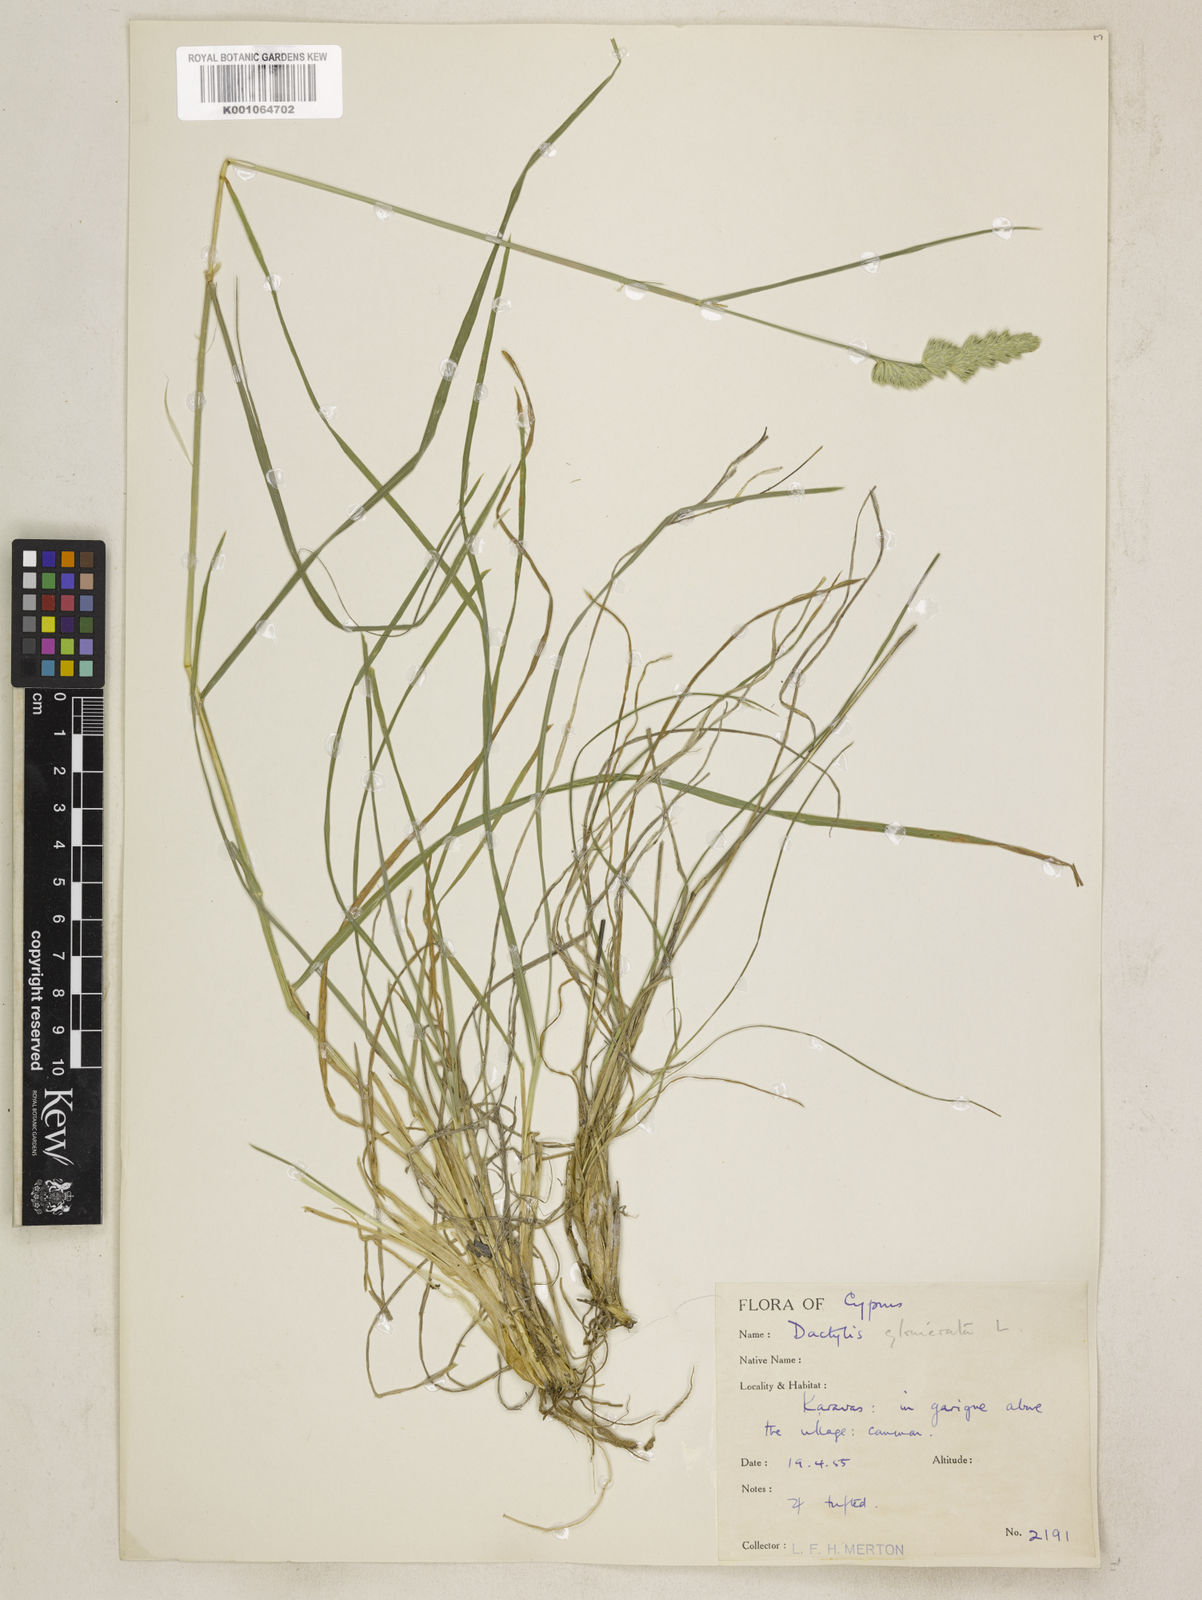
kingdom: Plantae
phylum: Tracheophyta
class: Liliopsida
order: Poales
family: Poaceae
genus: Dactylis
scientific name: Dactylis glomerata
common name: Orchardgrass
